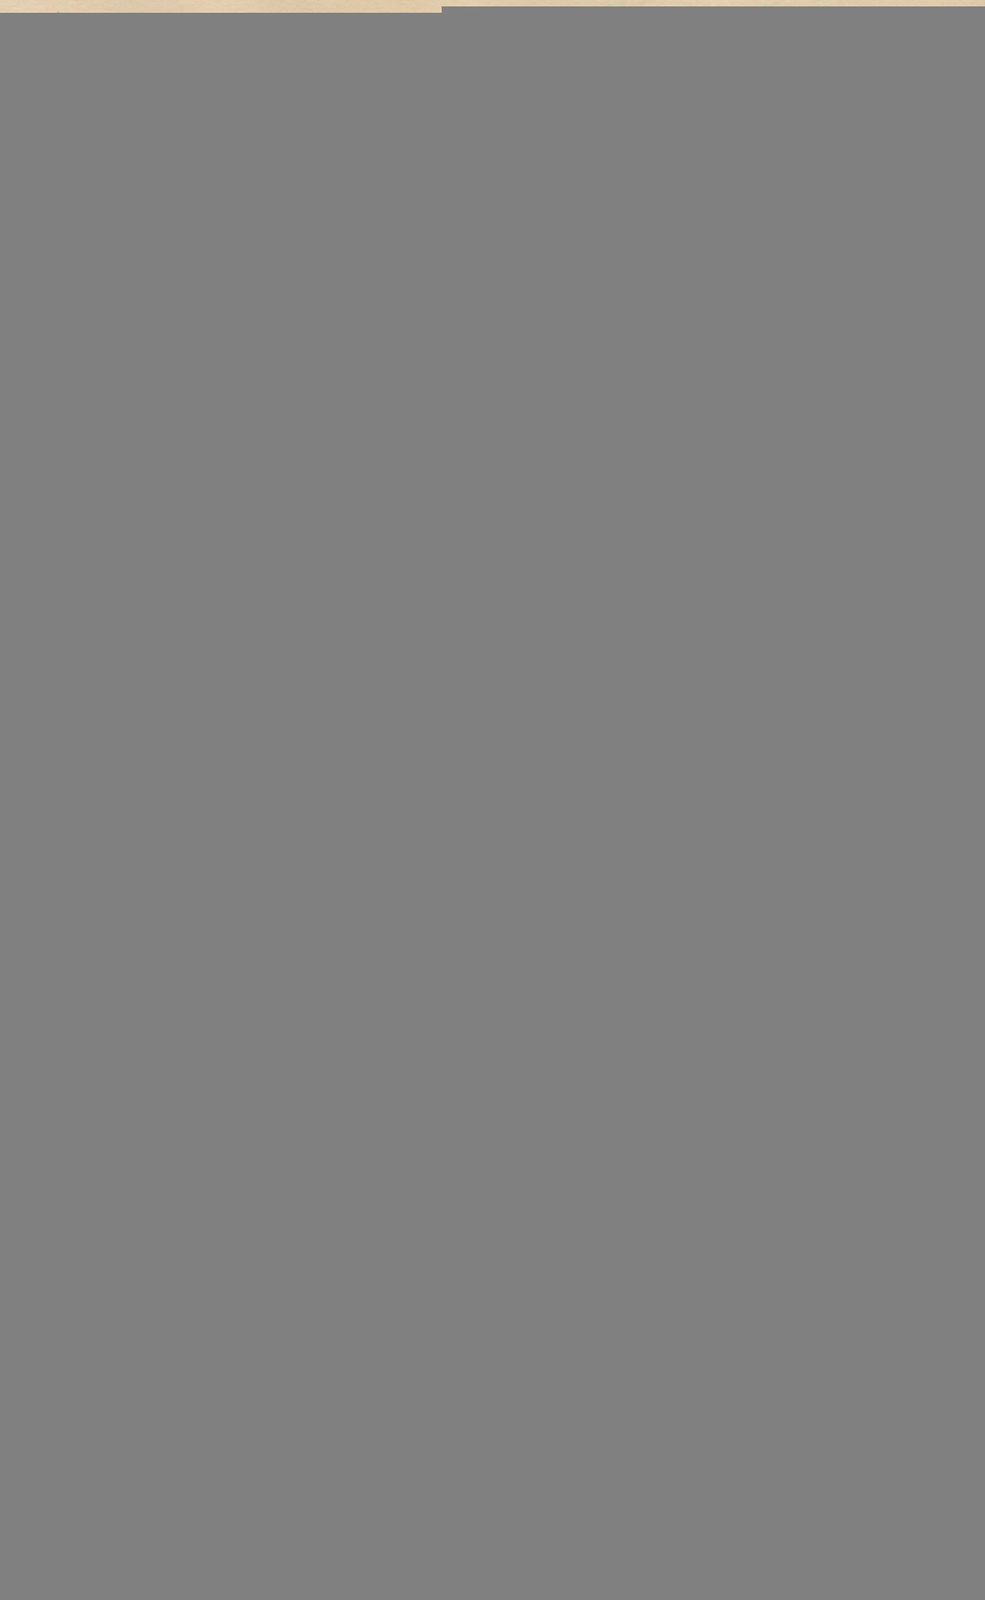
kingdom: Plantae
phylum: Tracheophyta
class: Magnoliopsida
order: Lamiales
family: Oleaceae
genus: Chionanthus
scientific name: Chionanthus oblanceolatus
